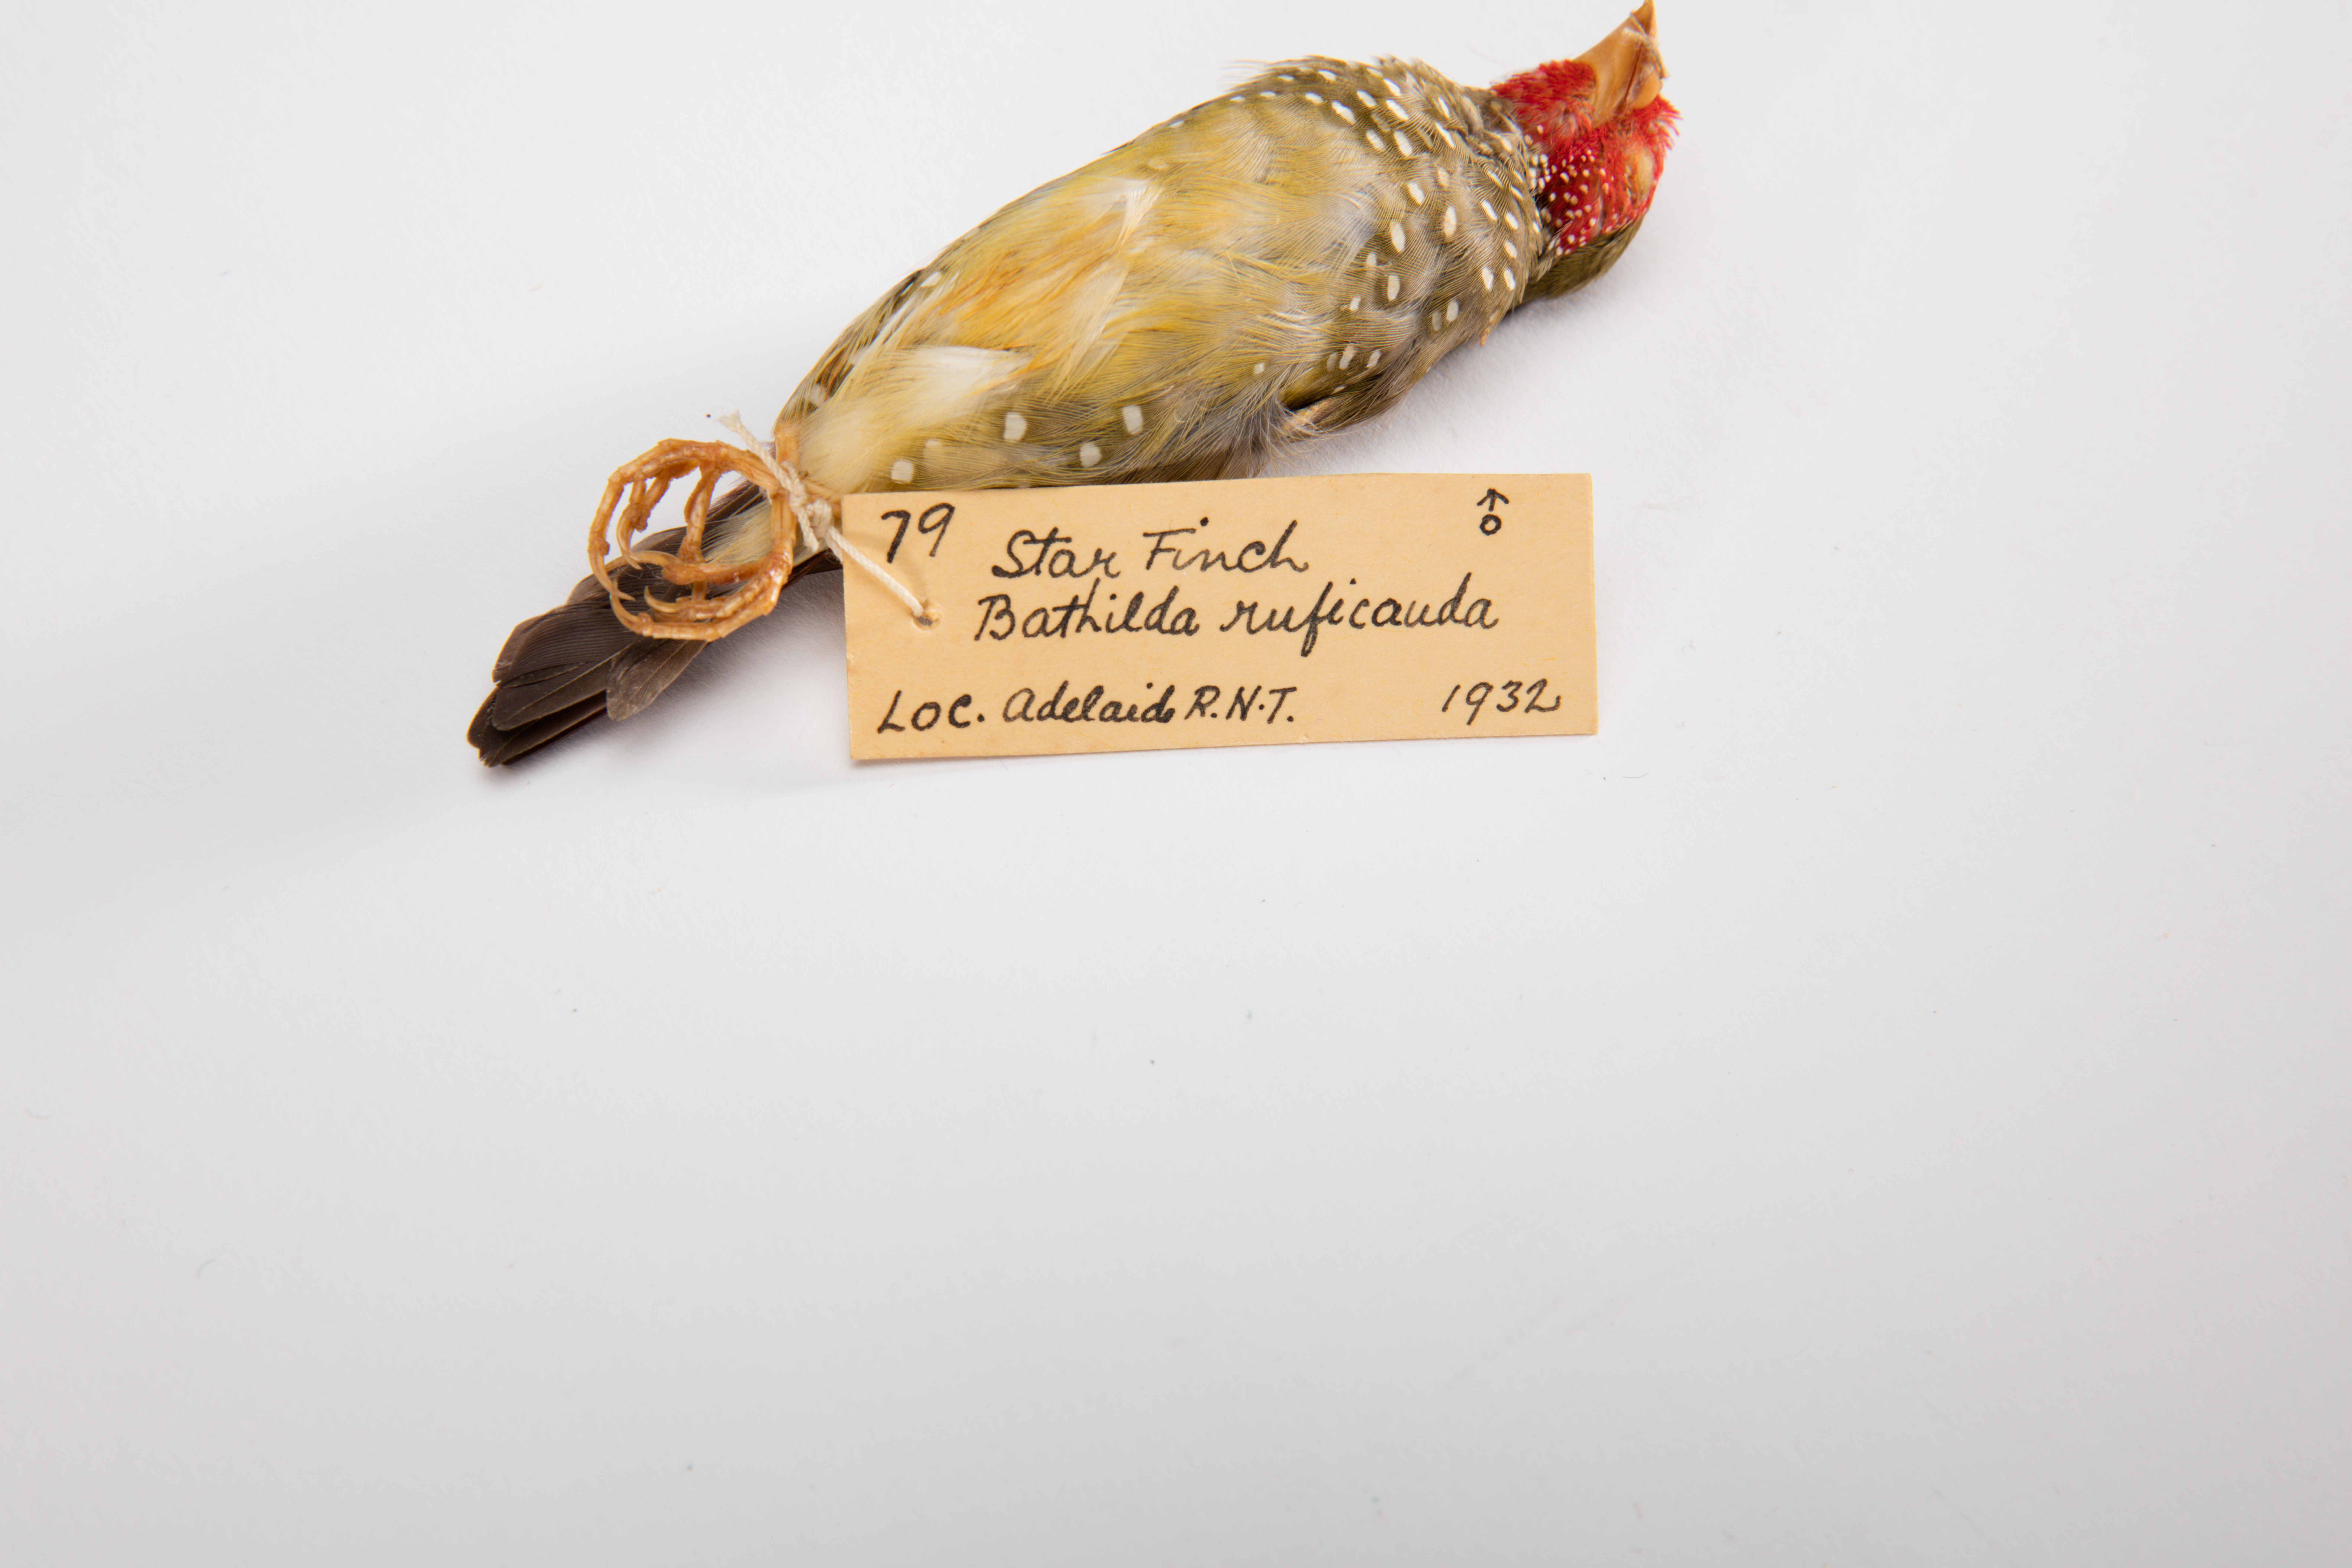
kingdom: Animalia
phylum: Chordata
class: Aves
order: Passeriformes
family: Estrildidae
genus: Neochmia
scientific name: Neochmia ruficauda
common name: Star finch
